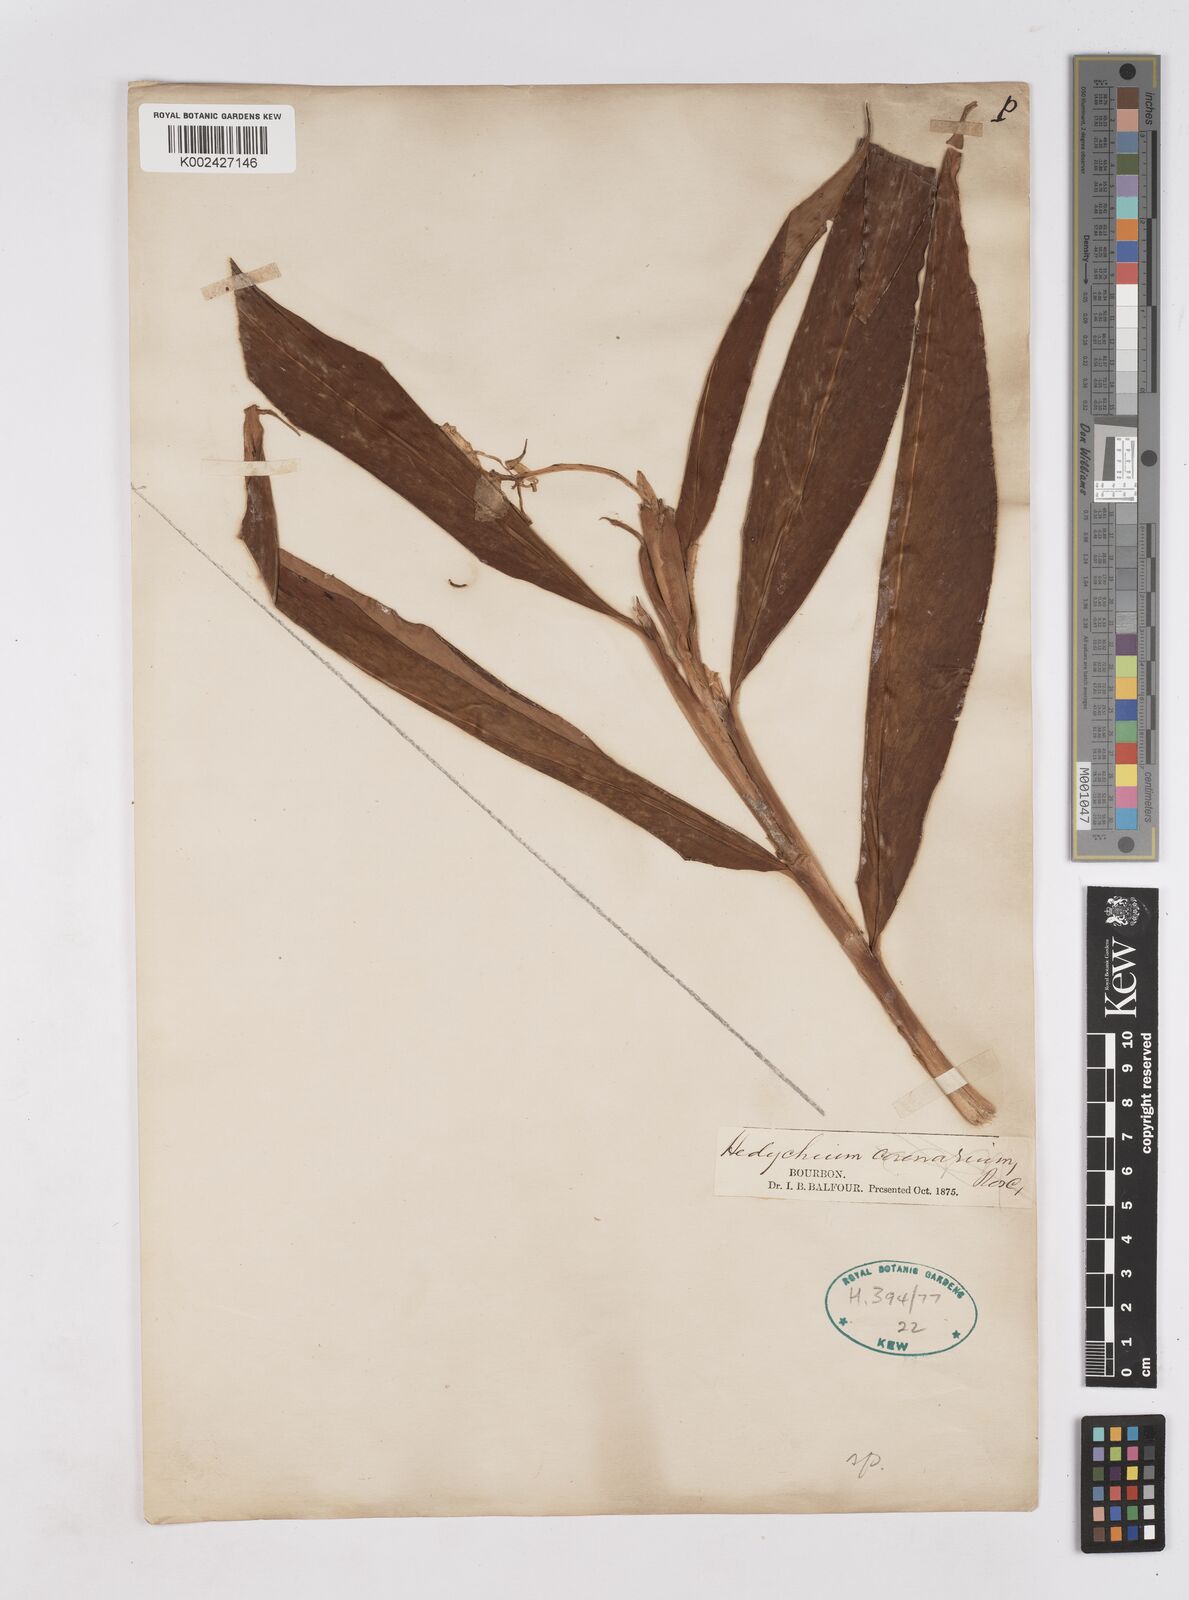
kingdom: Plantae
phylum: Tracheophyta
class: Liliopsida
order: Zingiberales
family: Zingiberaceae
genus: Hedychium
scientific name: Hedychium coronarium
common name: White garland-lily
